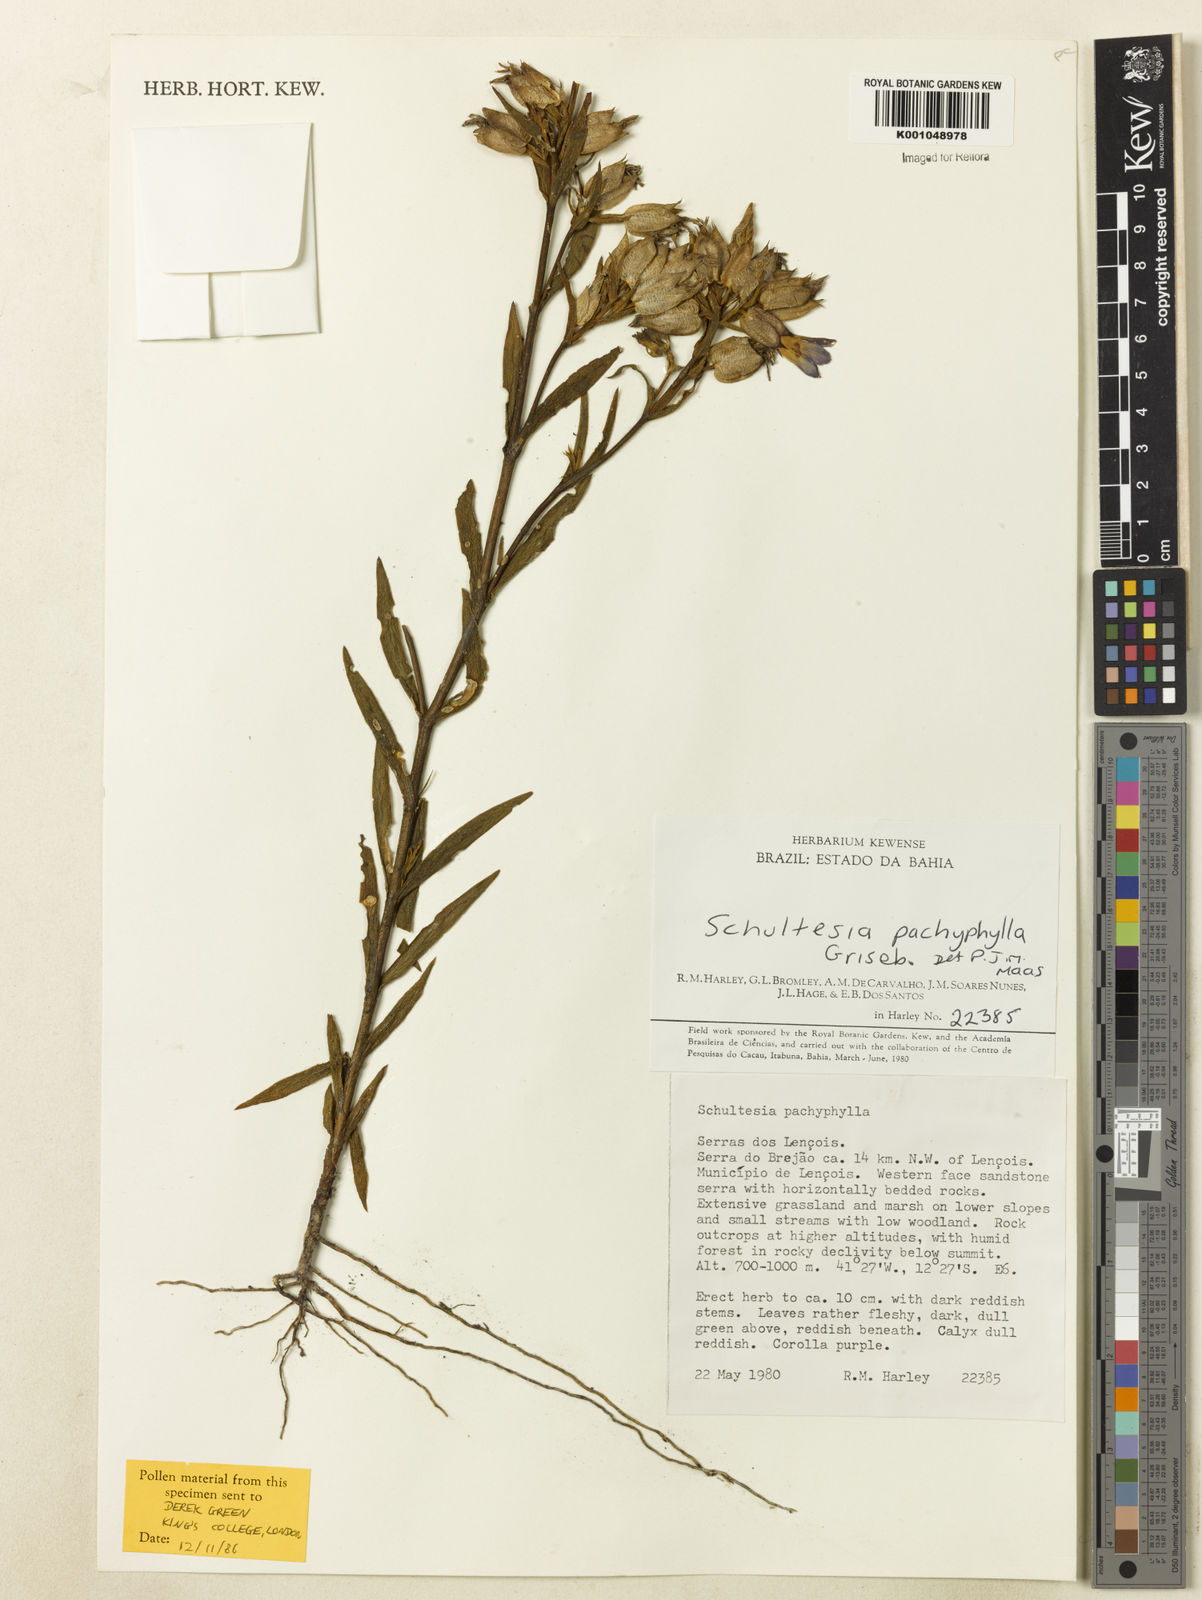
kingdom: Plantae
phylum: Tracheophyta
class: Magnoliopsida
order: Gentianales
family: Gentianaceae
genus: Schultesia
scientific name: Schultesia pachyphylla
